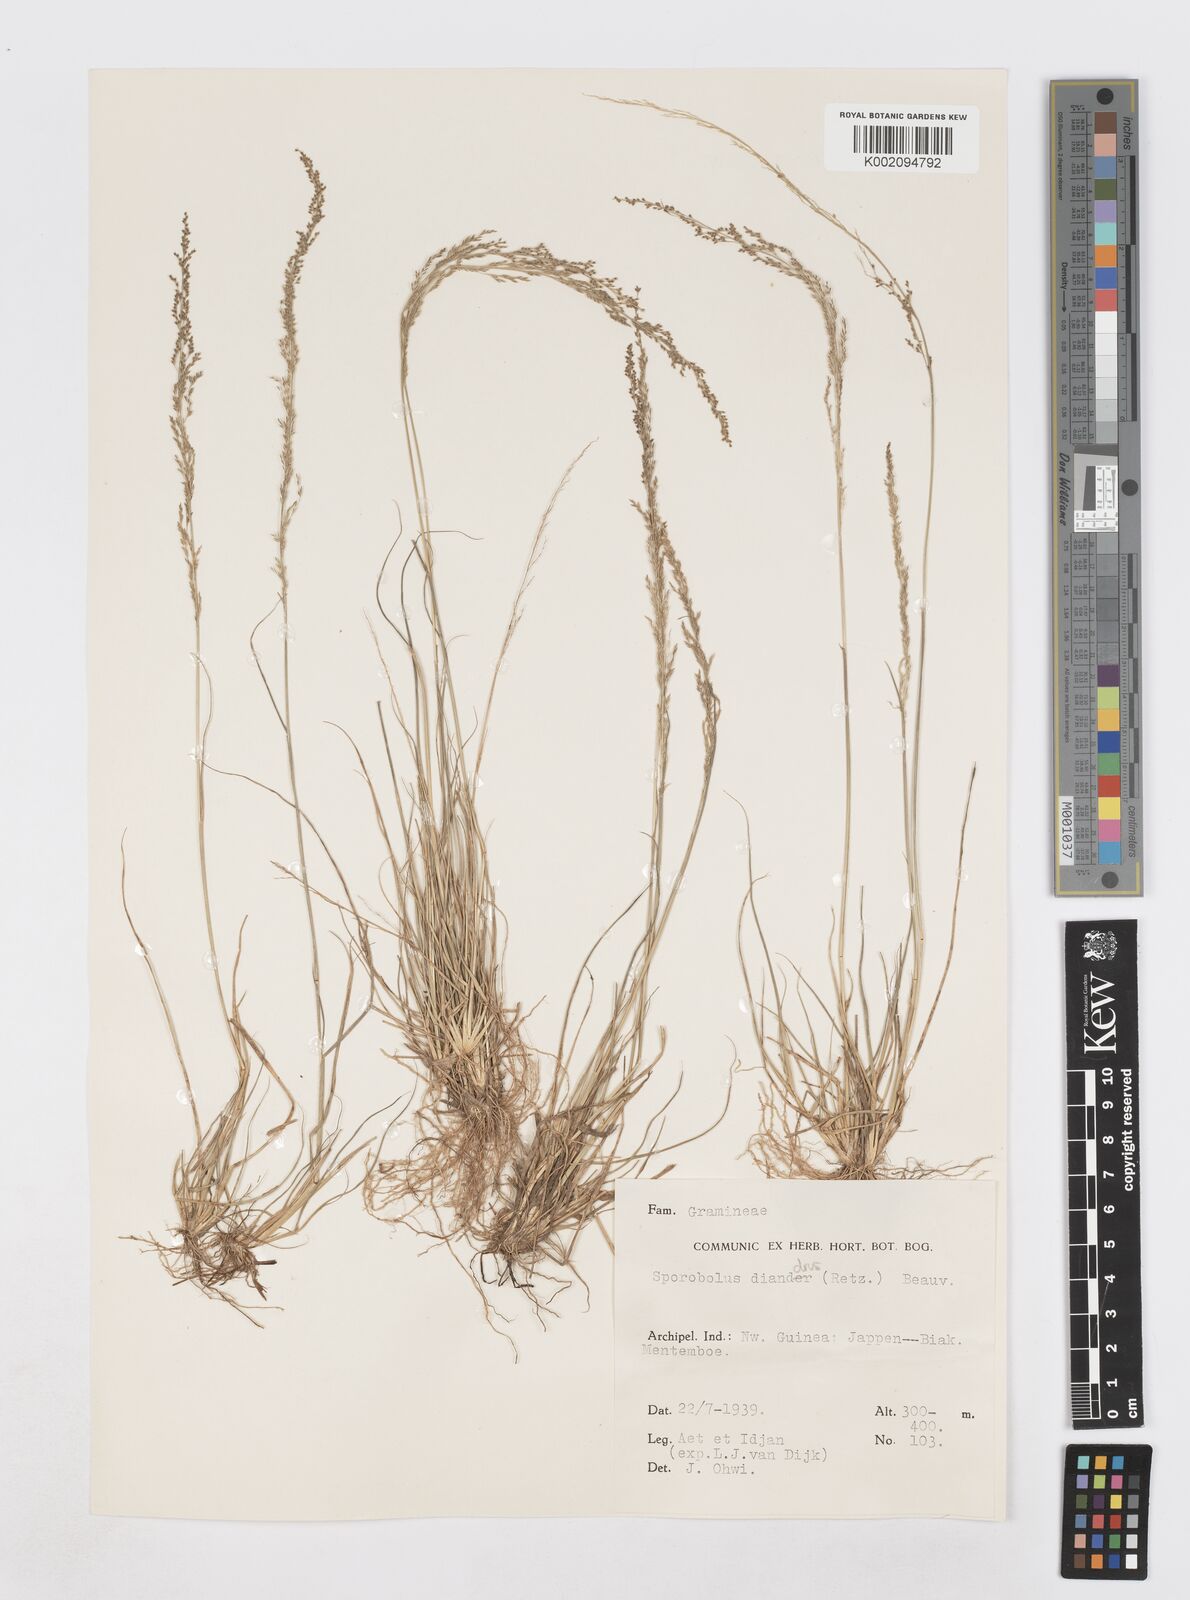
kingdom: Plantae
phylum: Tracheophyta
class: Liliopsida
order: Poales
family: Poaceae
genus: Sporobolus
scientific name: Sporobolus diandrus
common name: Tussock dropseed
